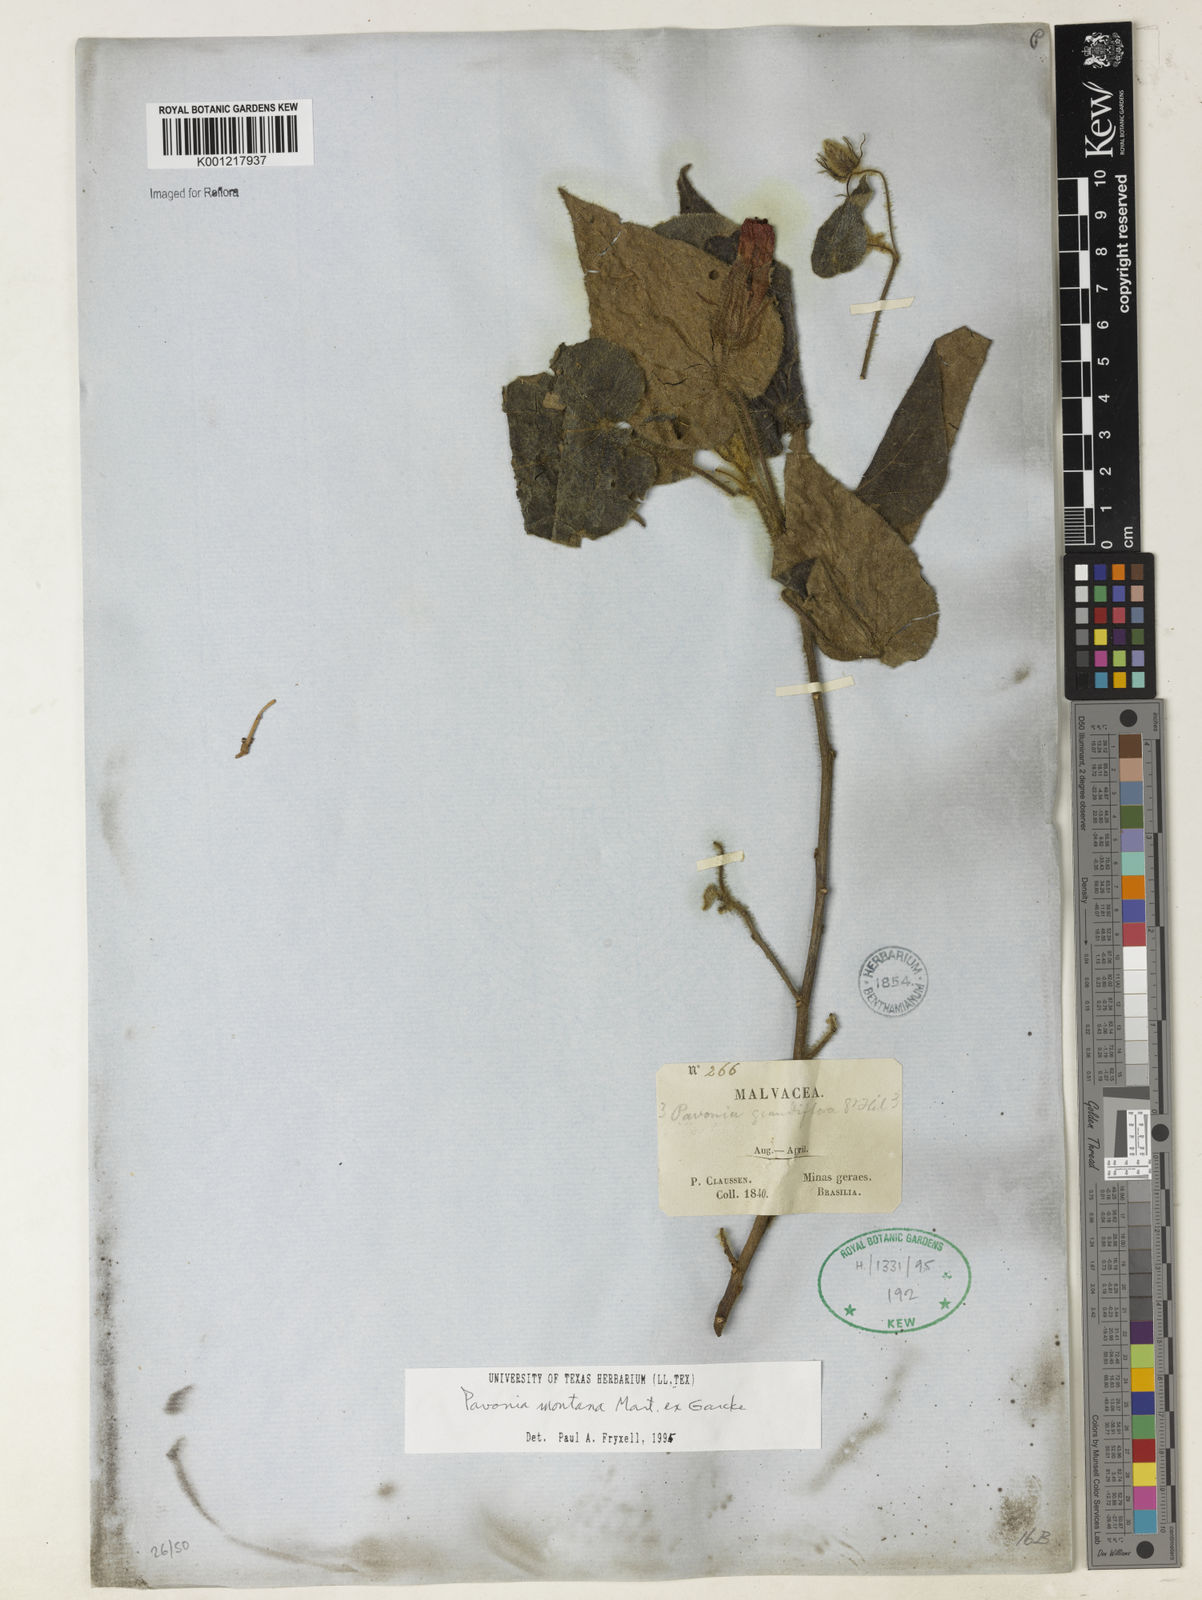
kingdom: Plantae
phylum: Tracheophyta
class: Magnoliopsida
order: Malvales
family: Malvaceae
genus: Pavonia
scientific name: Pavonia
